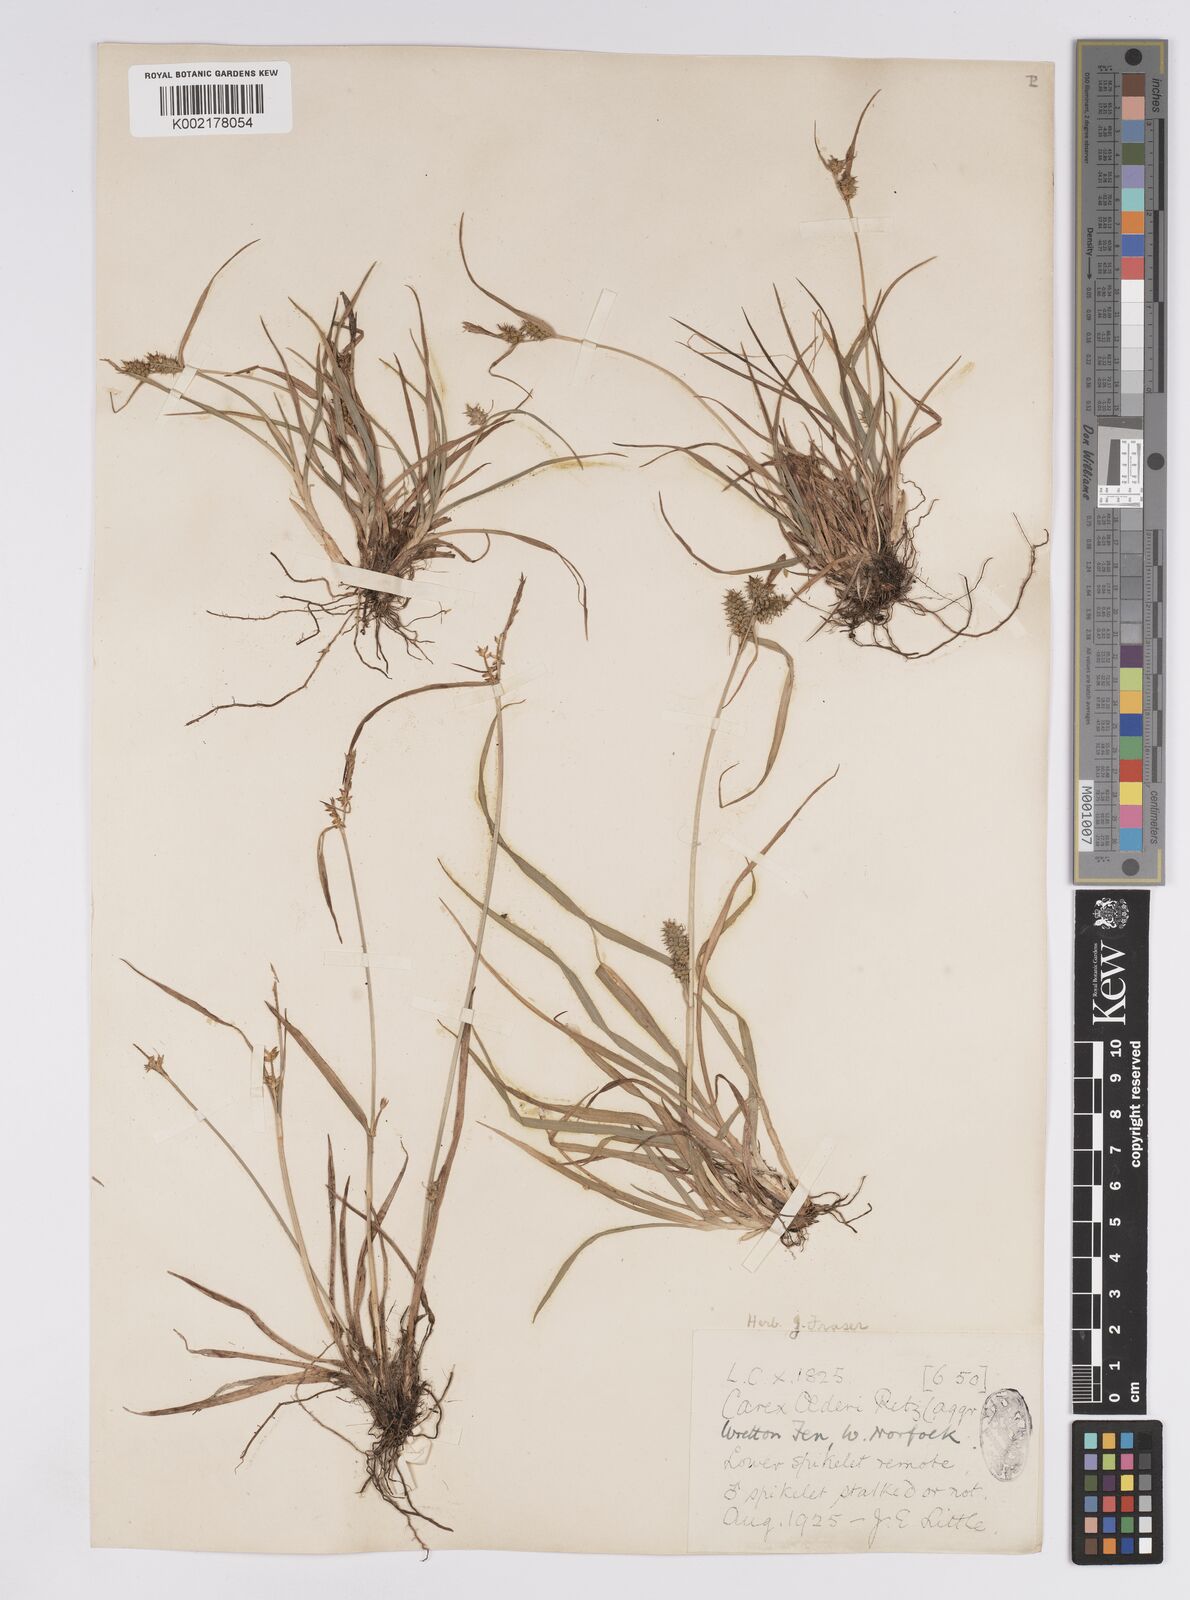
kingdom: Plantae
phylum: Tracheophyta
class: Liliopsida
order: Poales
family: Cyperaceae
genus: Carex
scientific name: Carex demissa
